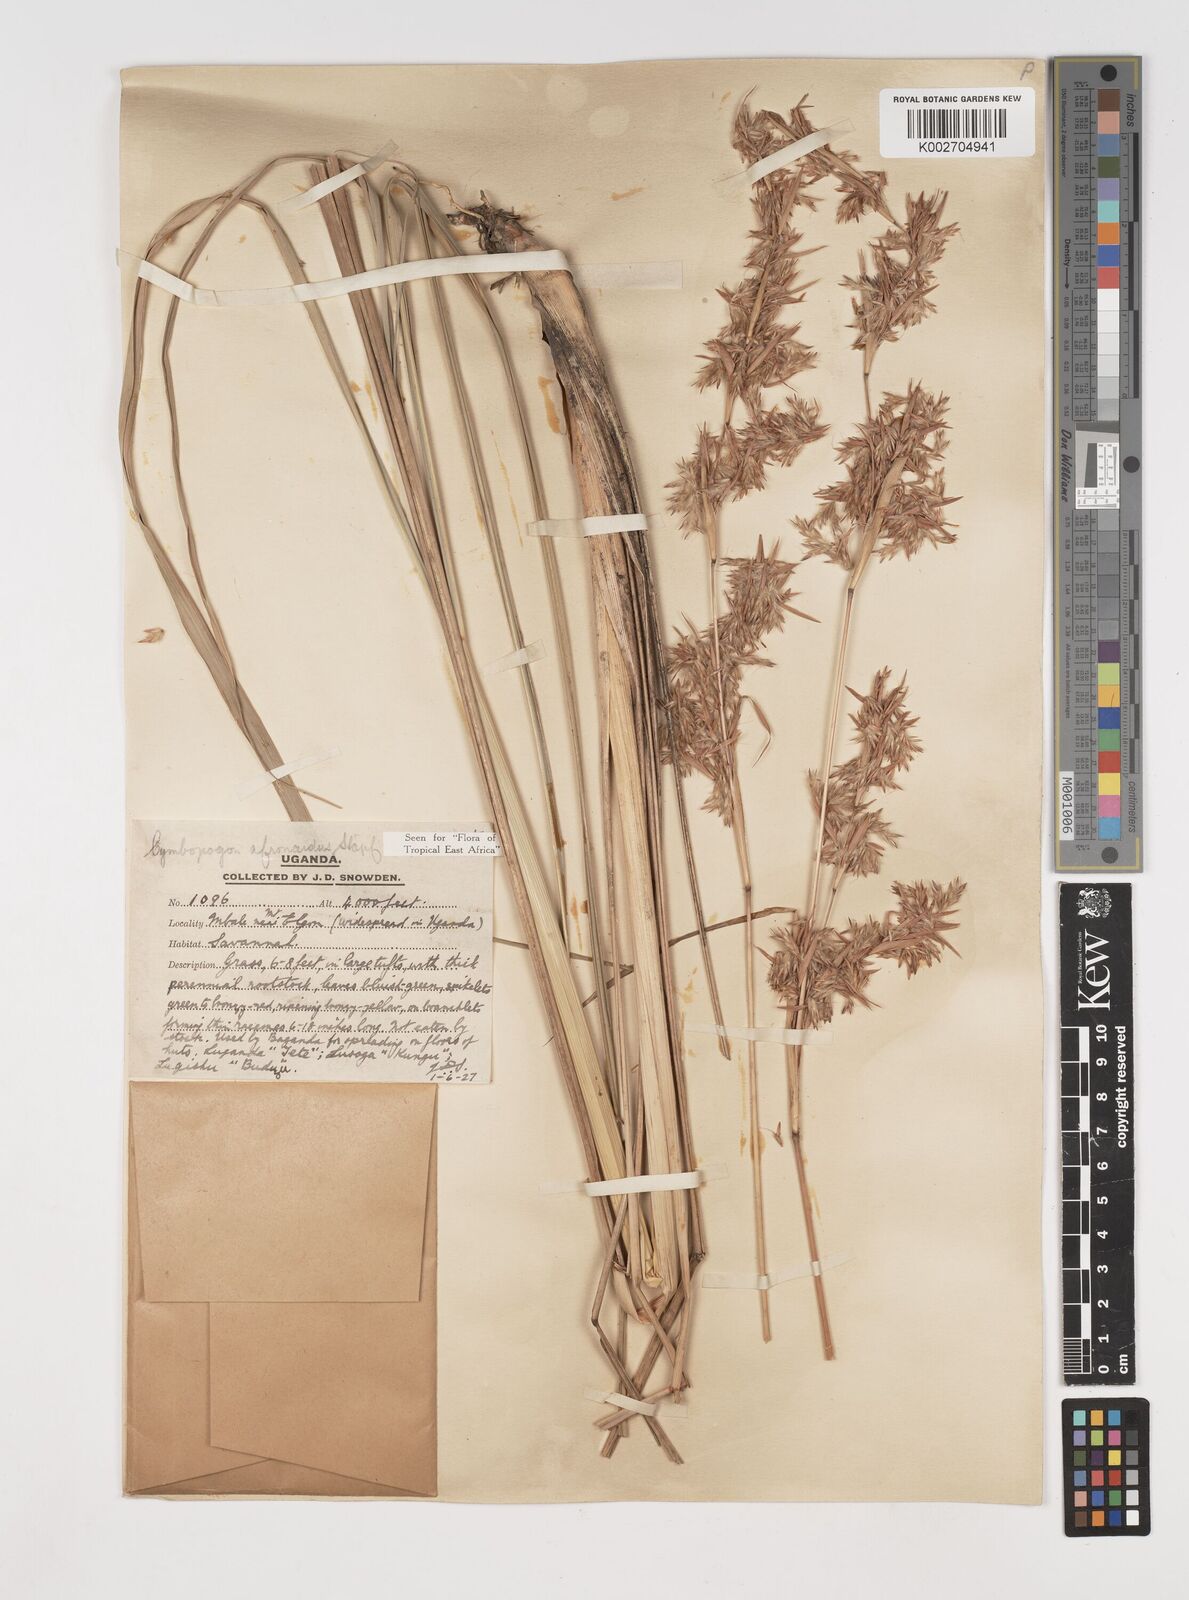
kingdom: Plantae
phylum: Tracheophyta
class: Liliopsida
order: Poales
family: Poaceae
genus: Cymbopogon
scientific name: Cymbopogon nardus
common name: Giant turpentine grass
